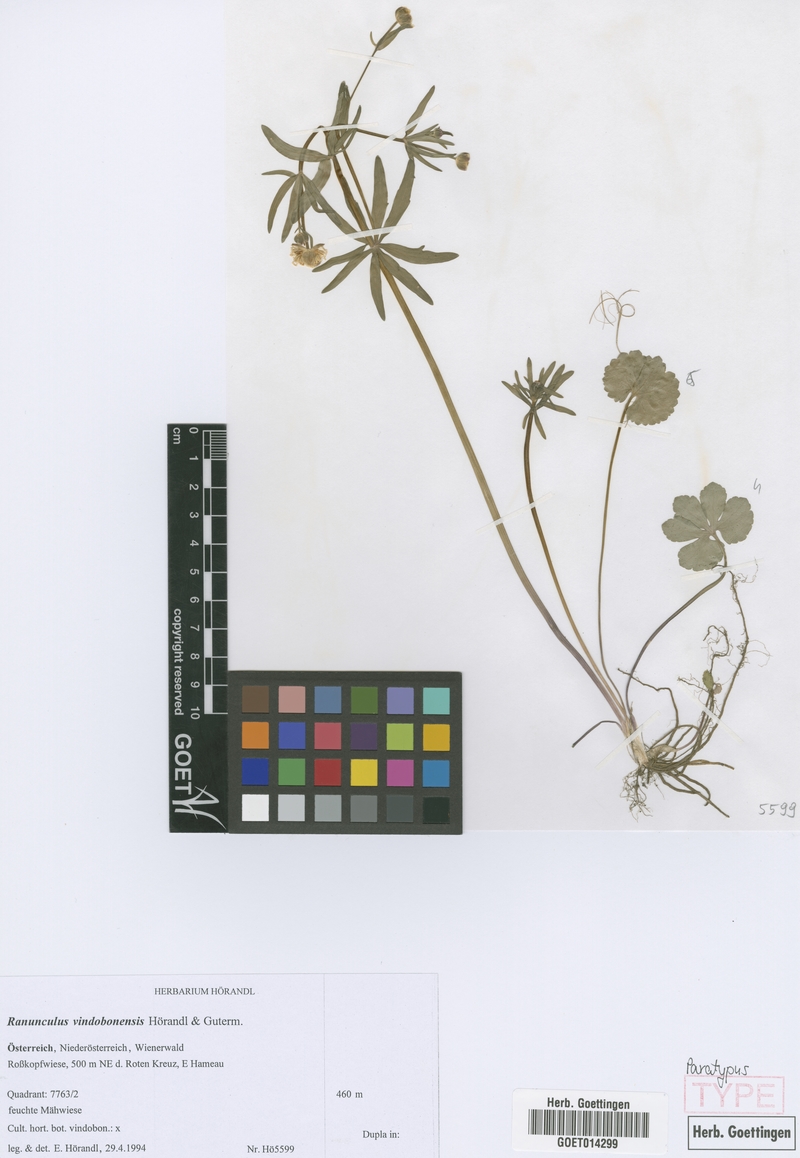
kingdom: Plantae
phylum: Tracheophyta
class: Magnoliopsida
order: Ranunculales
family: Ranunculaceae
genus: Ranunculus
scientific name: Ranunculus vindobonensis
